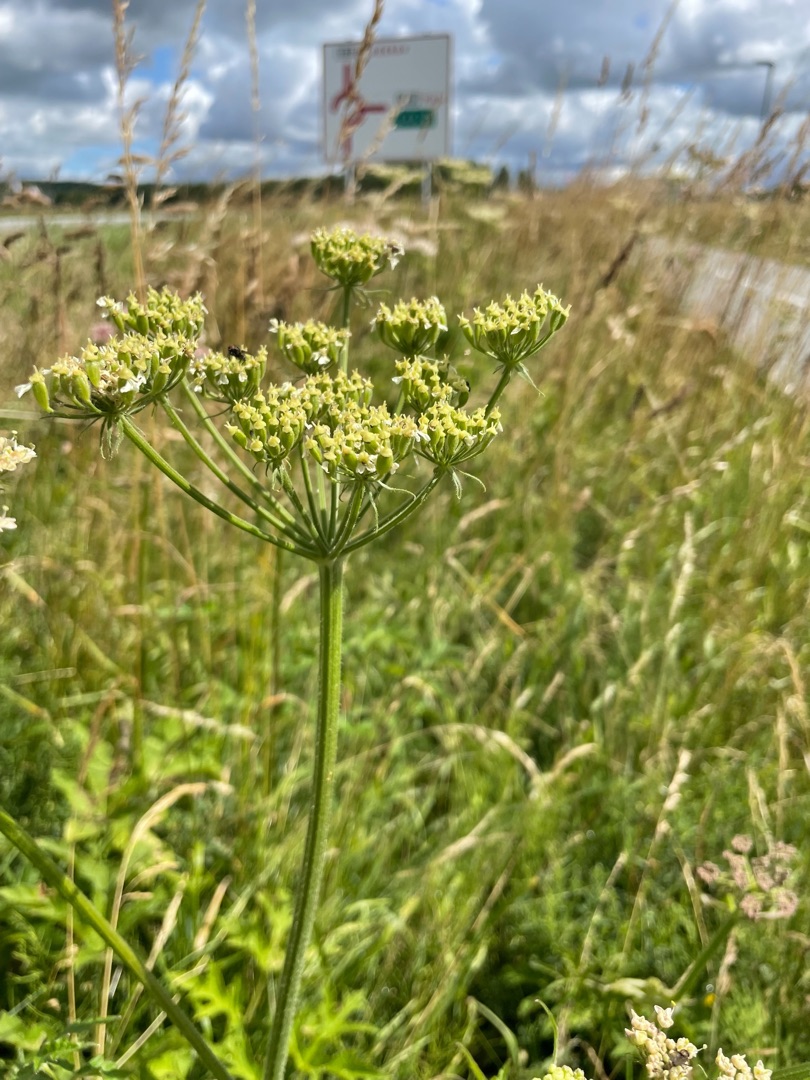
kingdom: Plantae
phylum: Tracheophyta
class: Magnoliopsida
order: Apiales
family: Apiaceae
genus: Heracleum
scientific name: Heracleum sphondylium
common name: Almindelig bjørneklo
